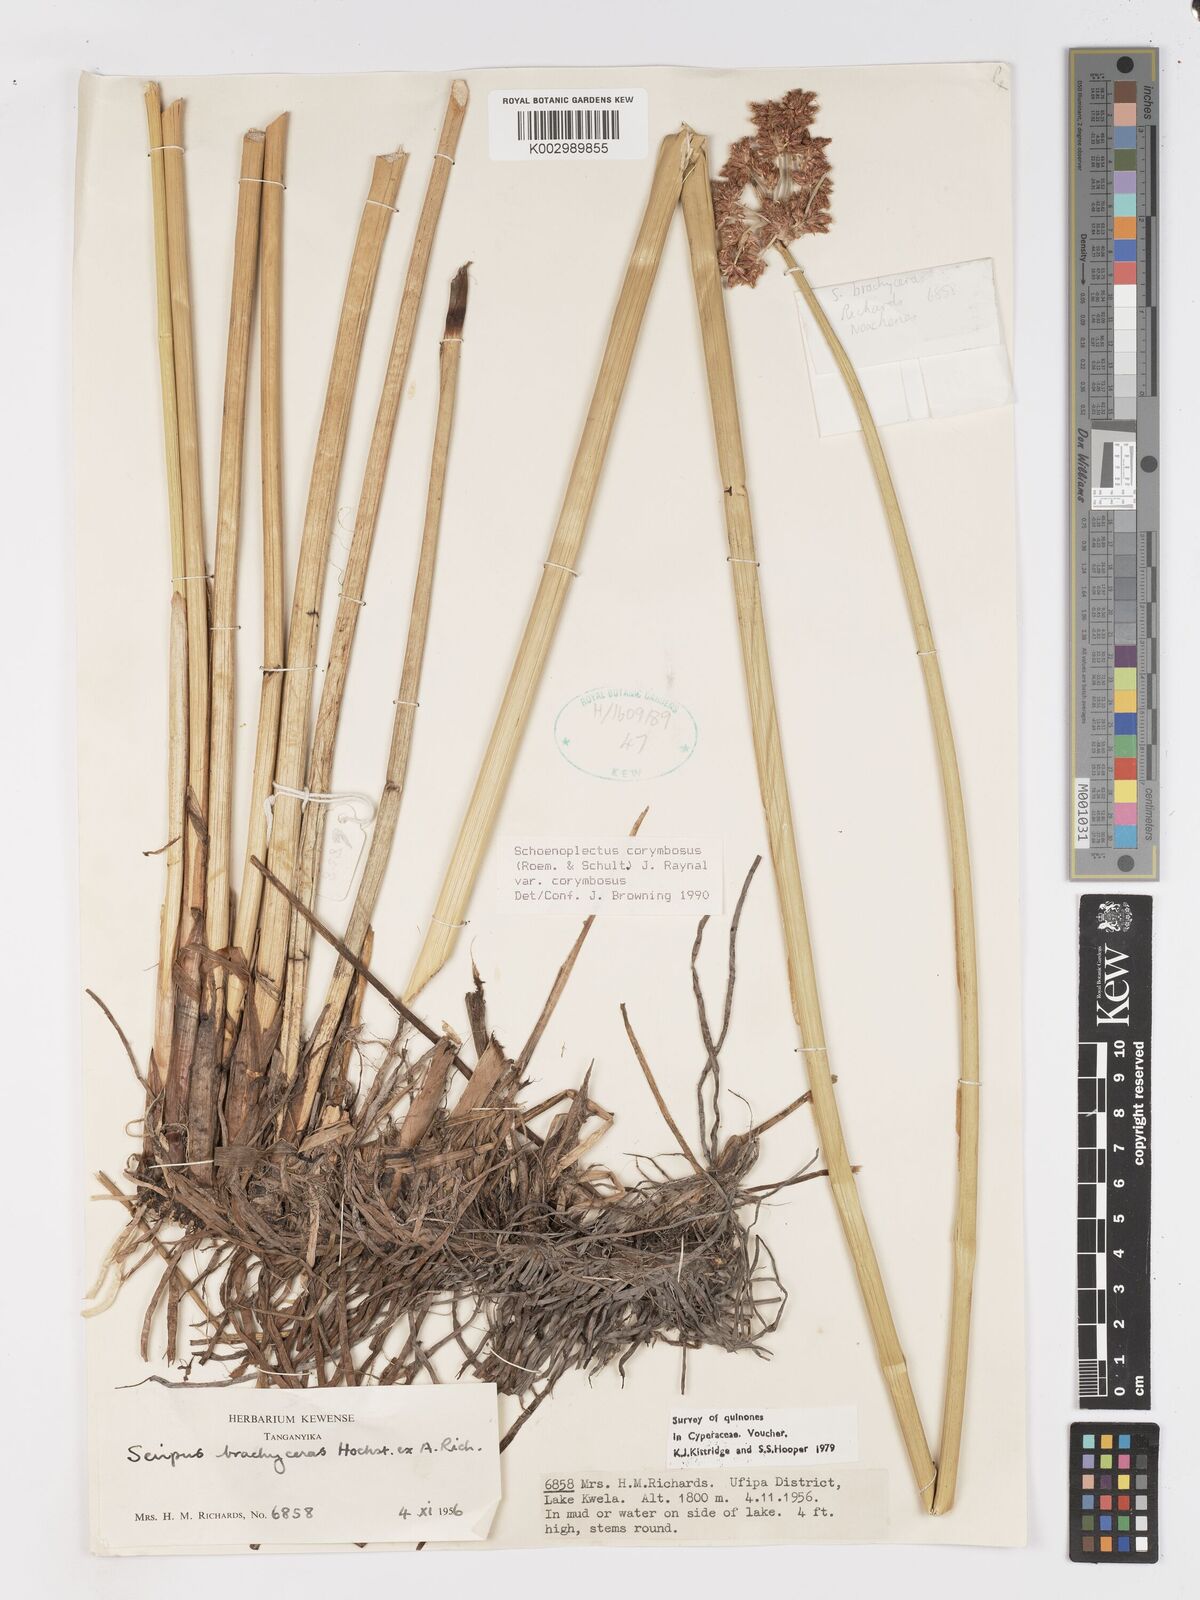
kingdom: Plantae
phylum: Tracheophyta
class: Liliopsida
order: Poales
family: Cyperaceae
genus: Schoenoplectiella
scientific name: Schoenoplectiella corymbosa
